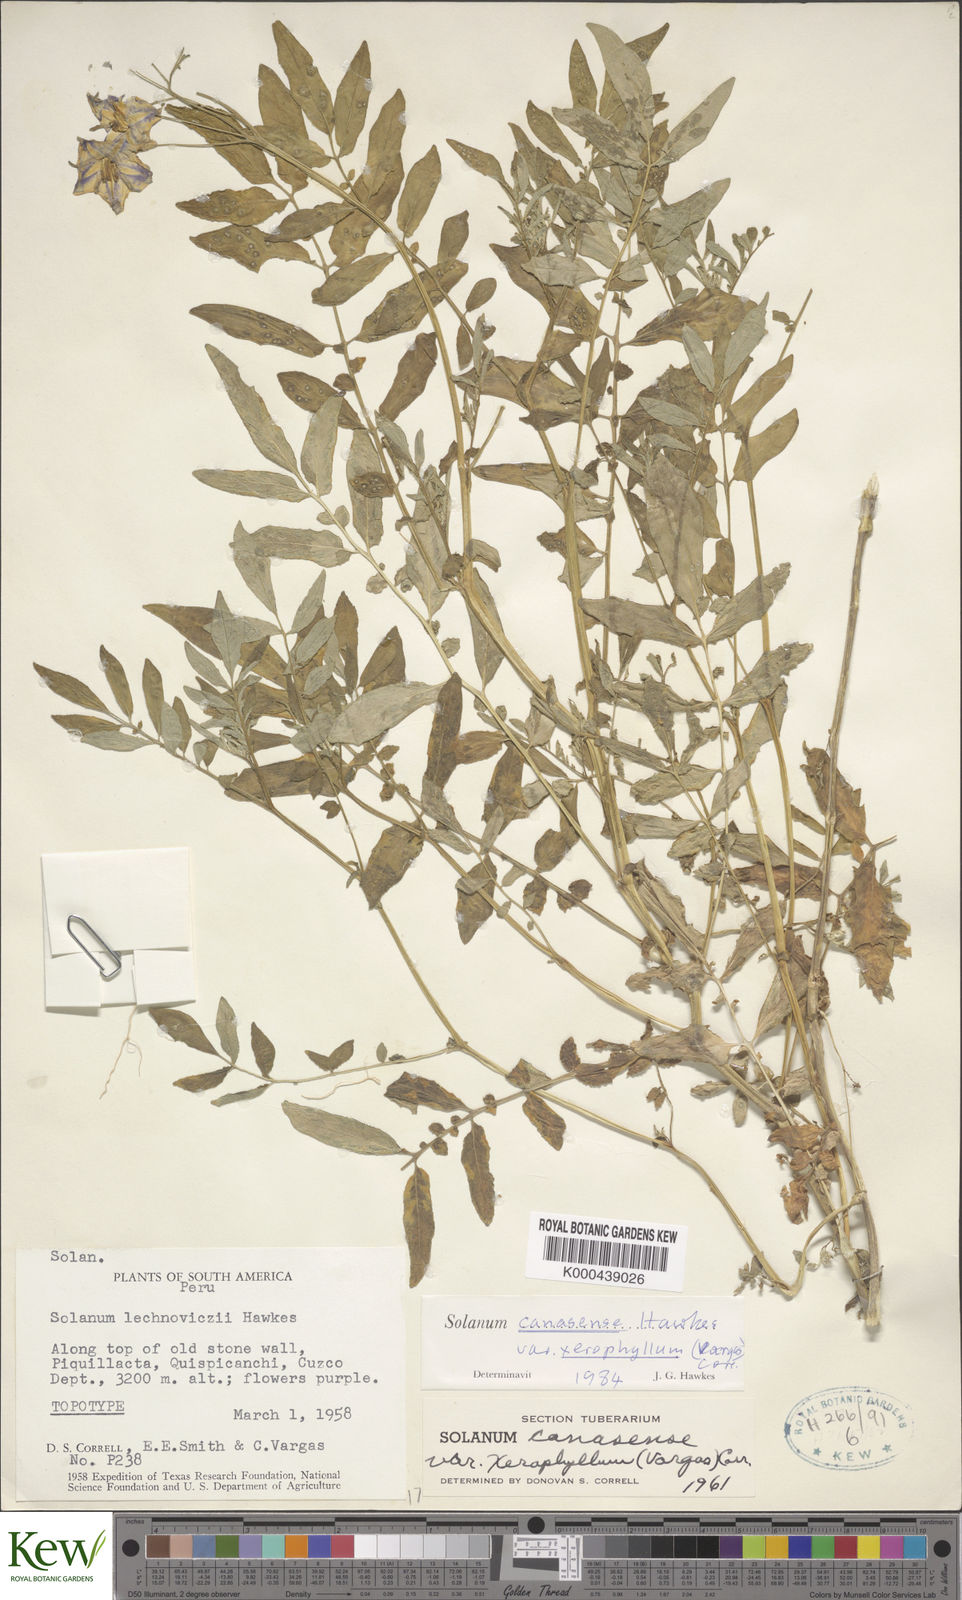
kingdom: Plantae
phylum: Tracheophyta
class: Magnoliopsida
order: Solanales
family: Solanaceae
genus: Solanum
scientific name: Solanum candolleanum
